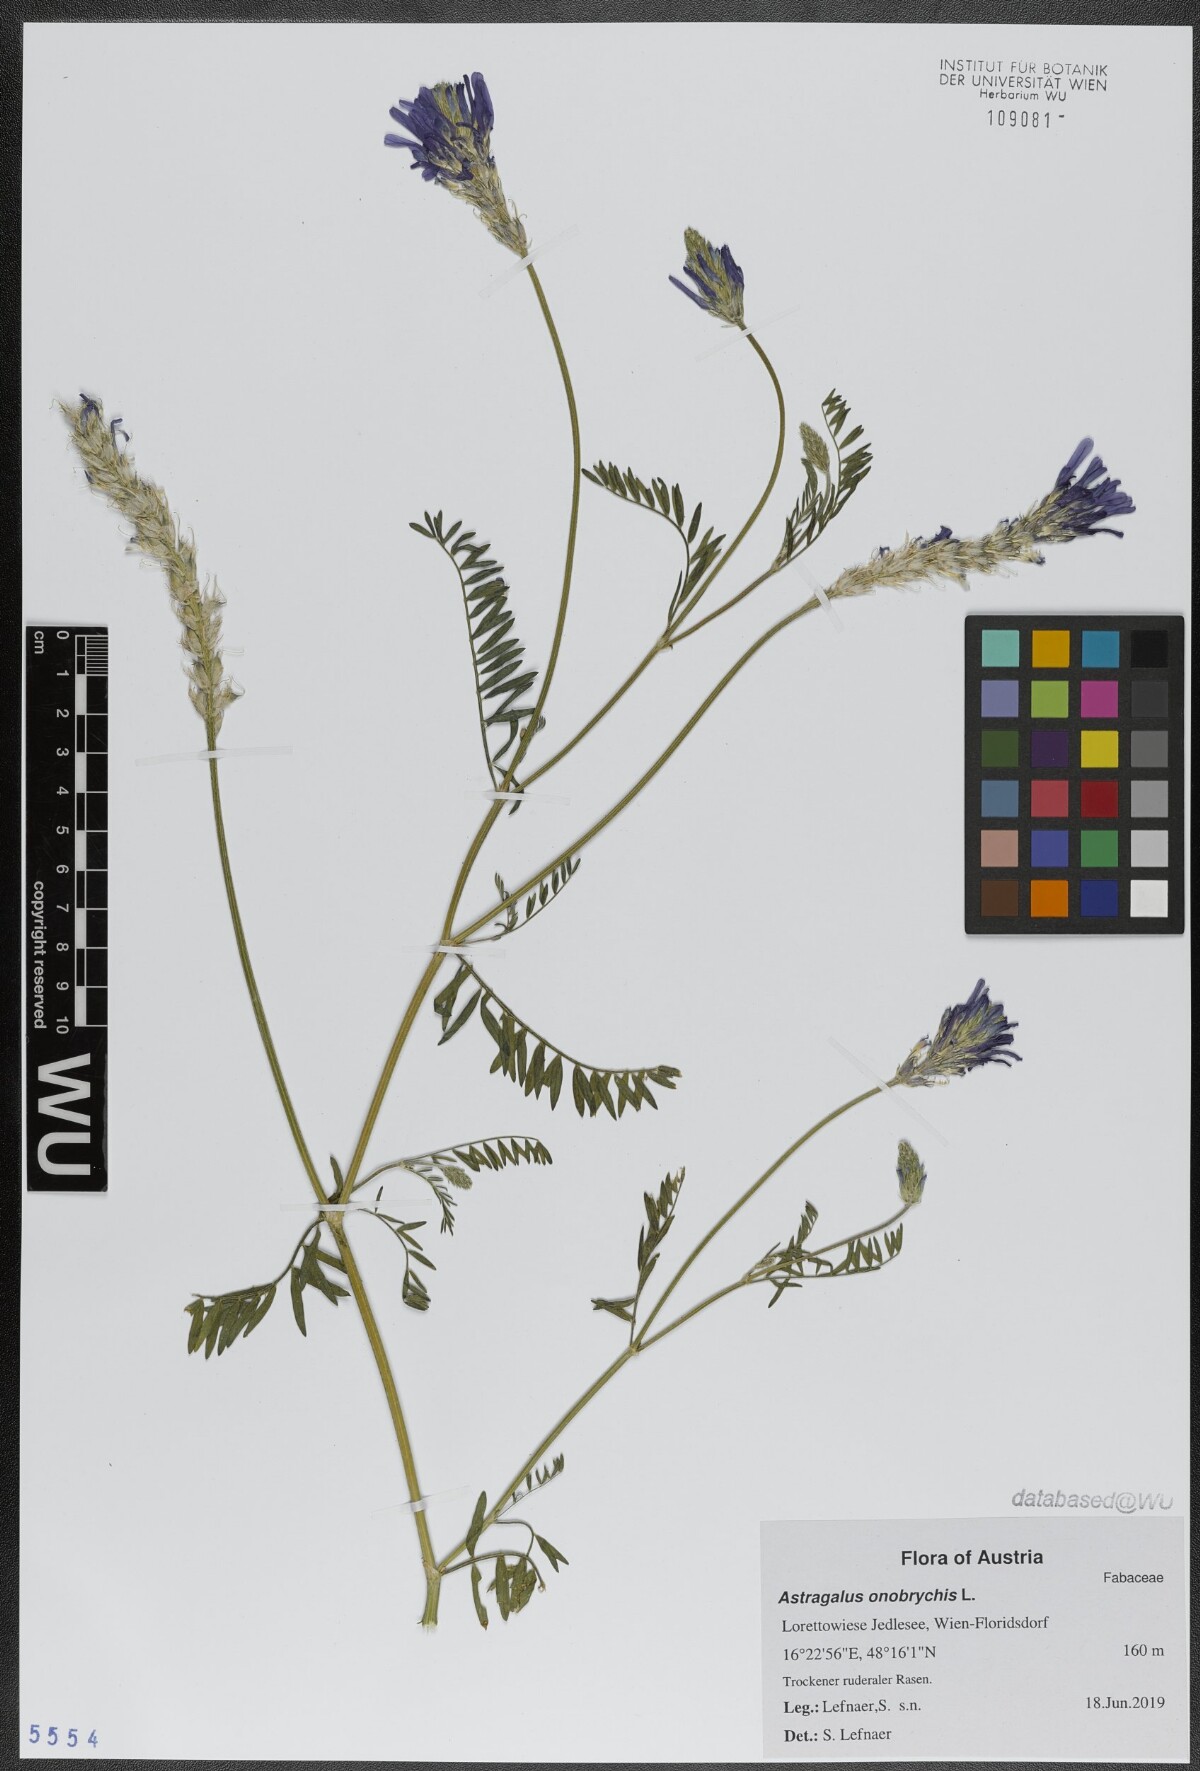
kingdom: Plantae
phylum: Tracheophyta
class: Magnoliopsida
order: Fabales
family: Fabaceae
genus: Astragalus
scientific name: Astragalus onobrychis
